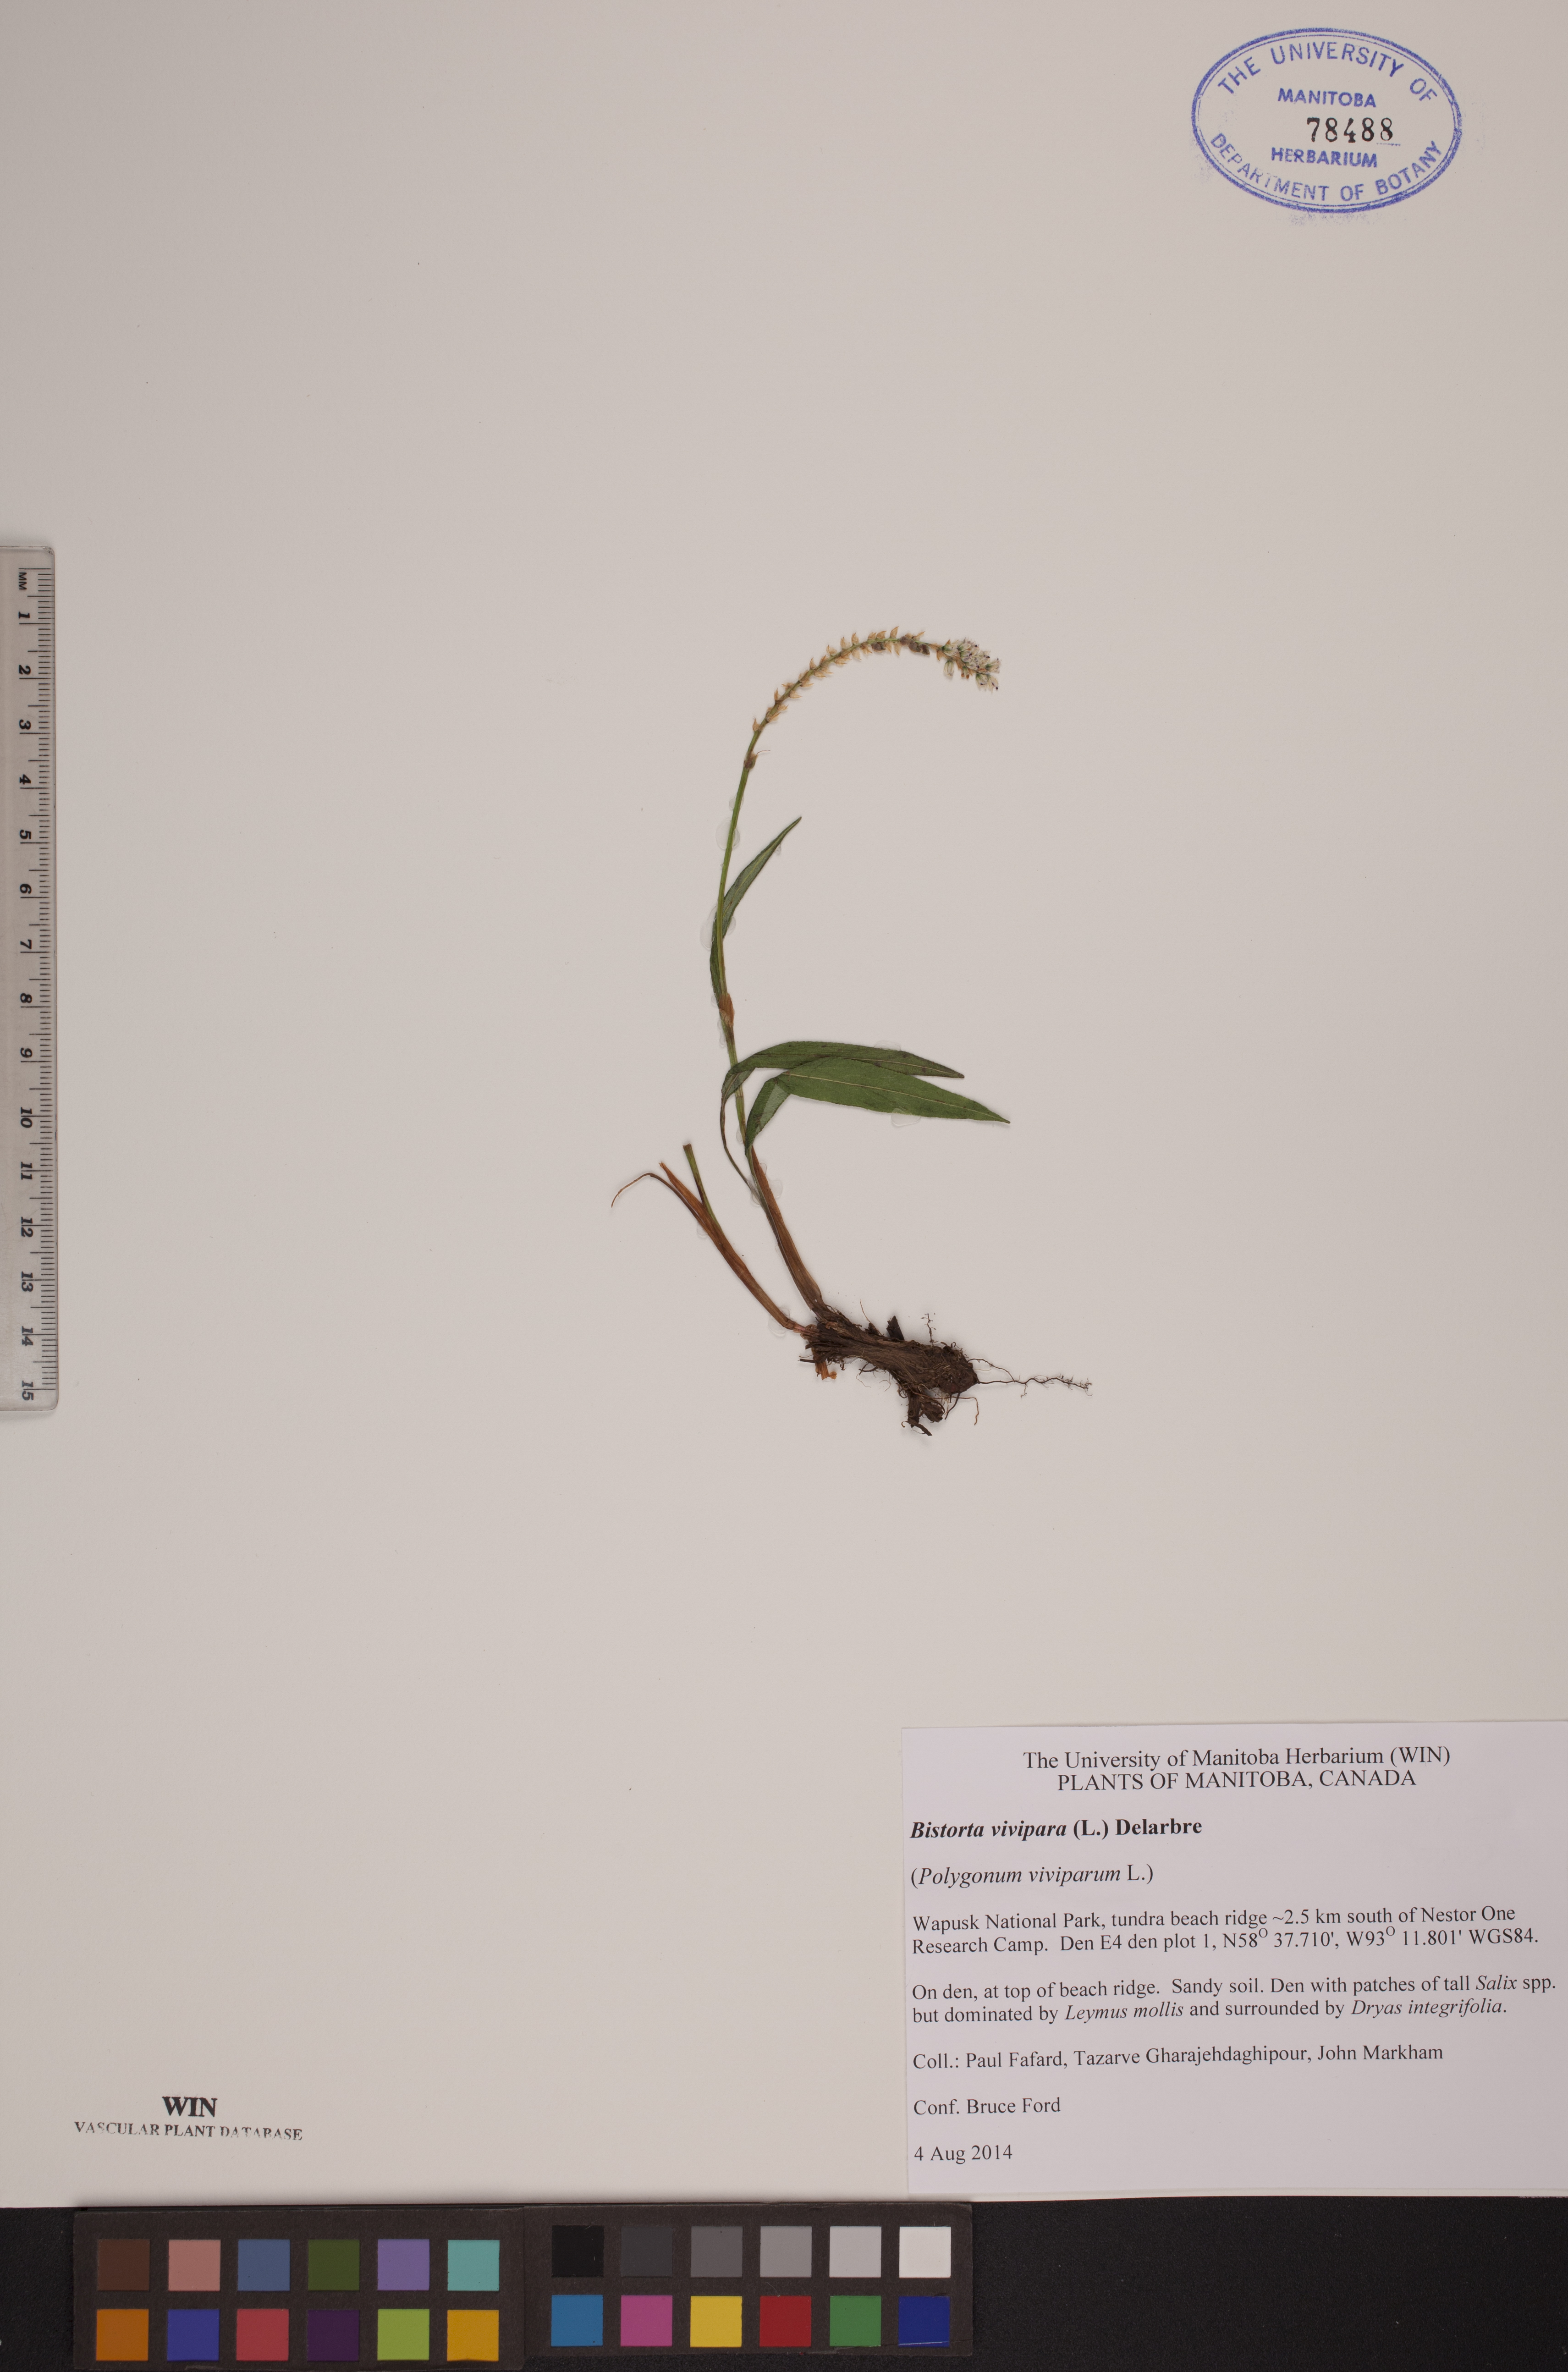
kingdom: Plantae
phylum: Tracheophyta
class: Magnoliopsida
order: Caryophyllales
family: Polygonaceae
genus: Bistorta
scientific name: Bistorta vivipara
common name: Alpine bistort
